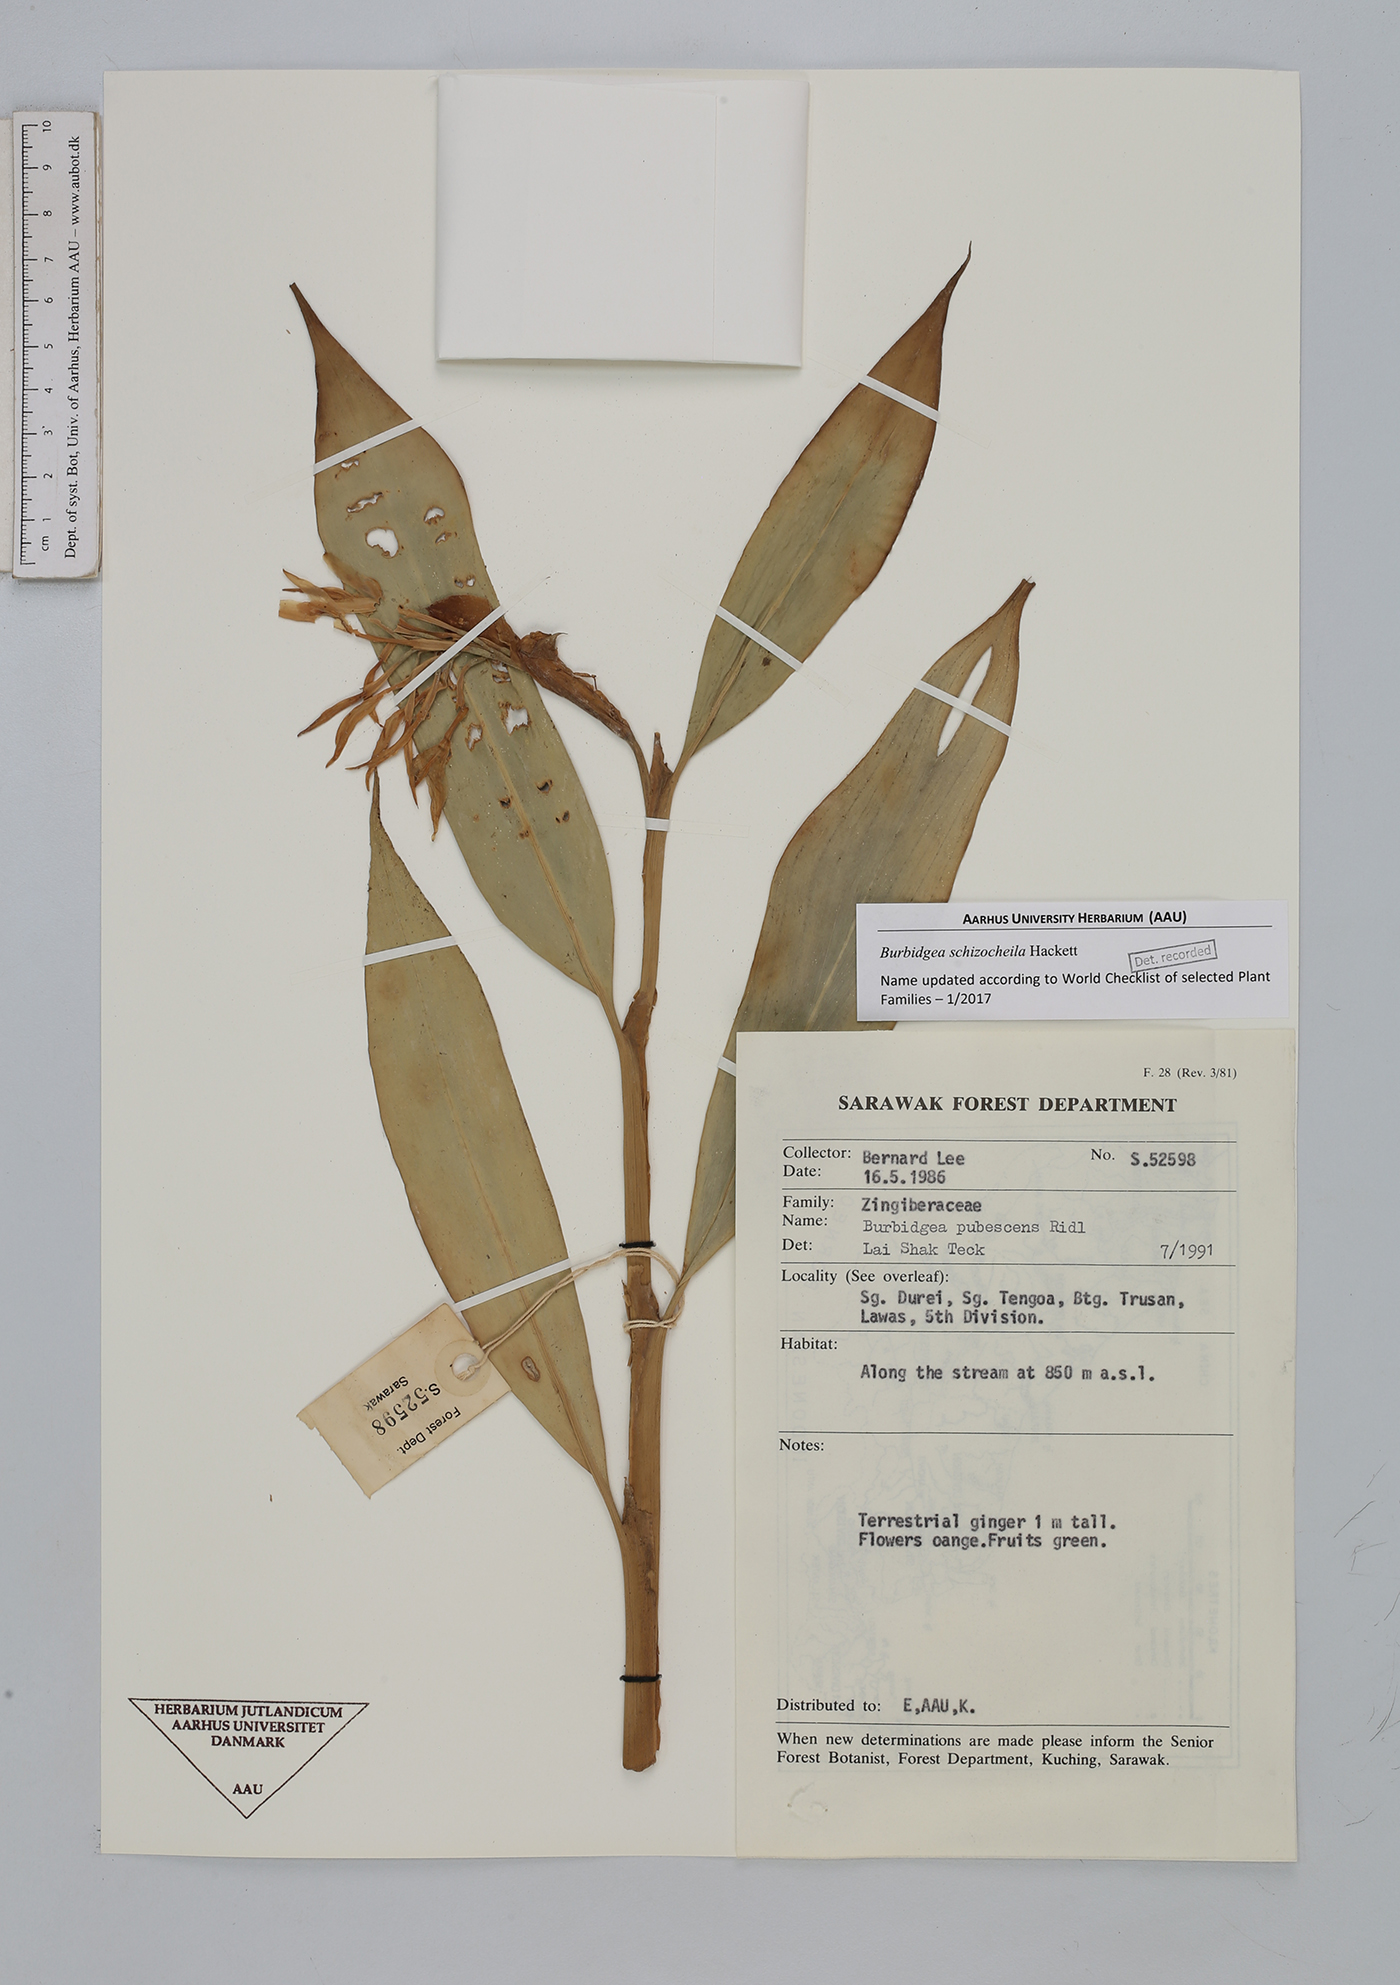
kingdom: Plantae
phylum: Tracheophyta
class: Liliopsida
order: Zingiberales
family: Zingiberaceae
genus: Burbidgea
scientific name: Burbidgea schizocheila
